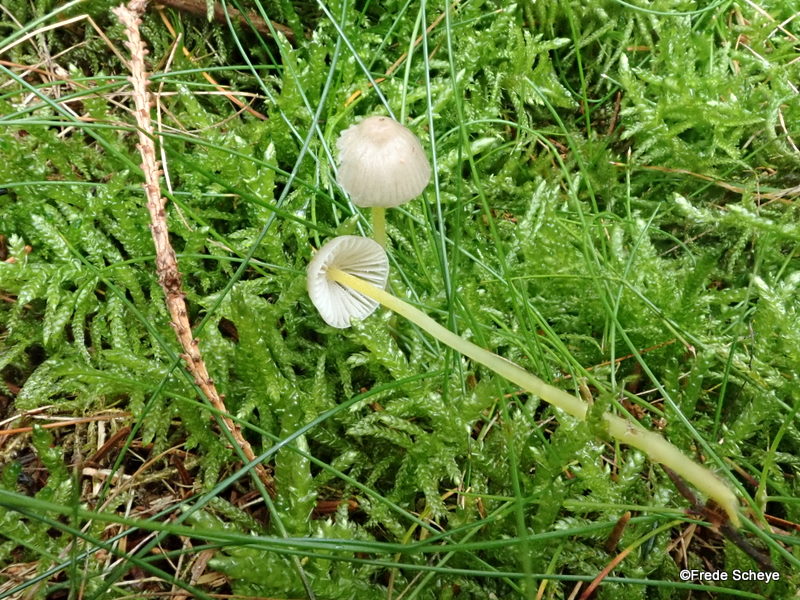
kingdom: Fungi
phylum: Basidiomycota
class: Agaricomycetes
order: Agaricales
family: Mycenaceae
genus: Mycena
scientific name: Mycena epipterygia
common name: gulstokket huesvamp
